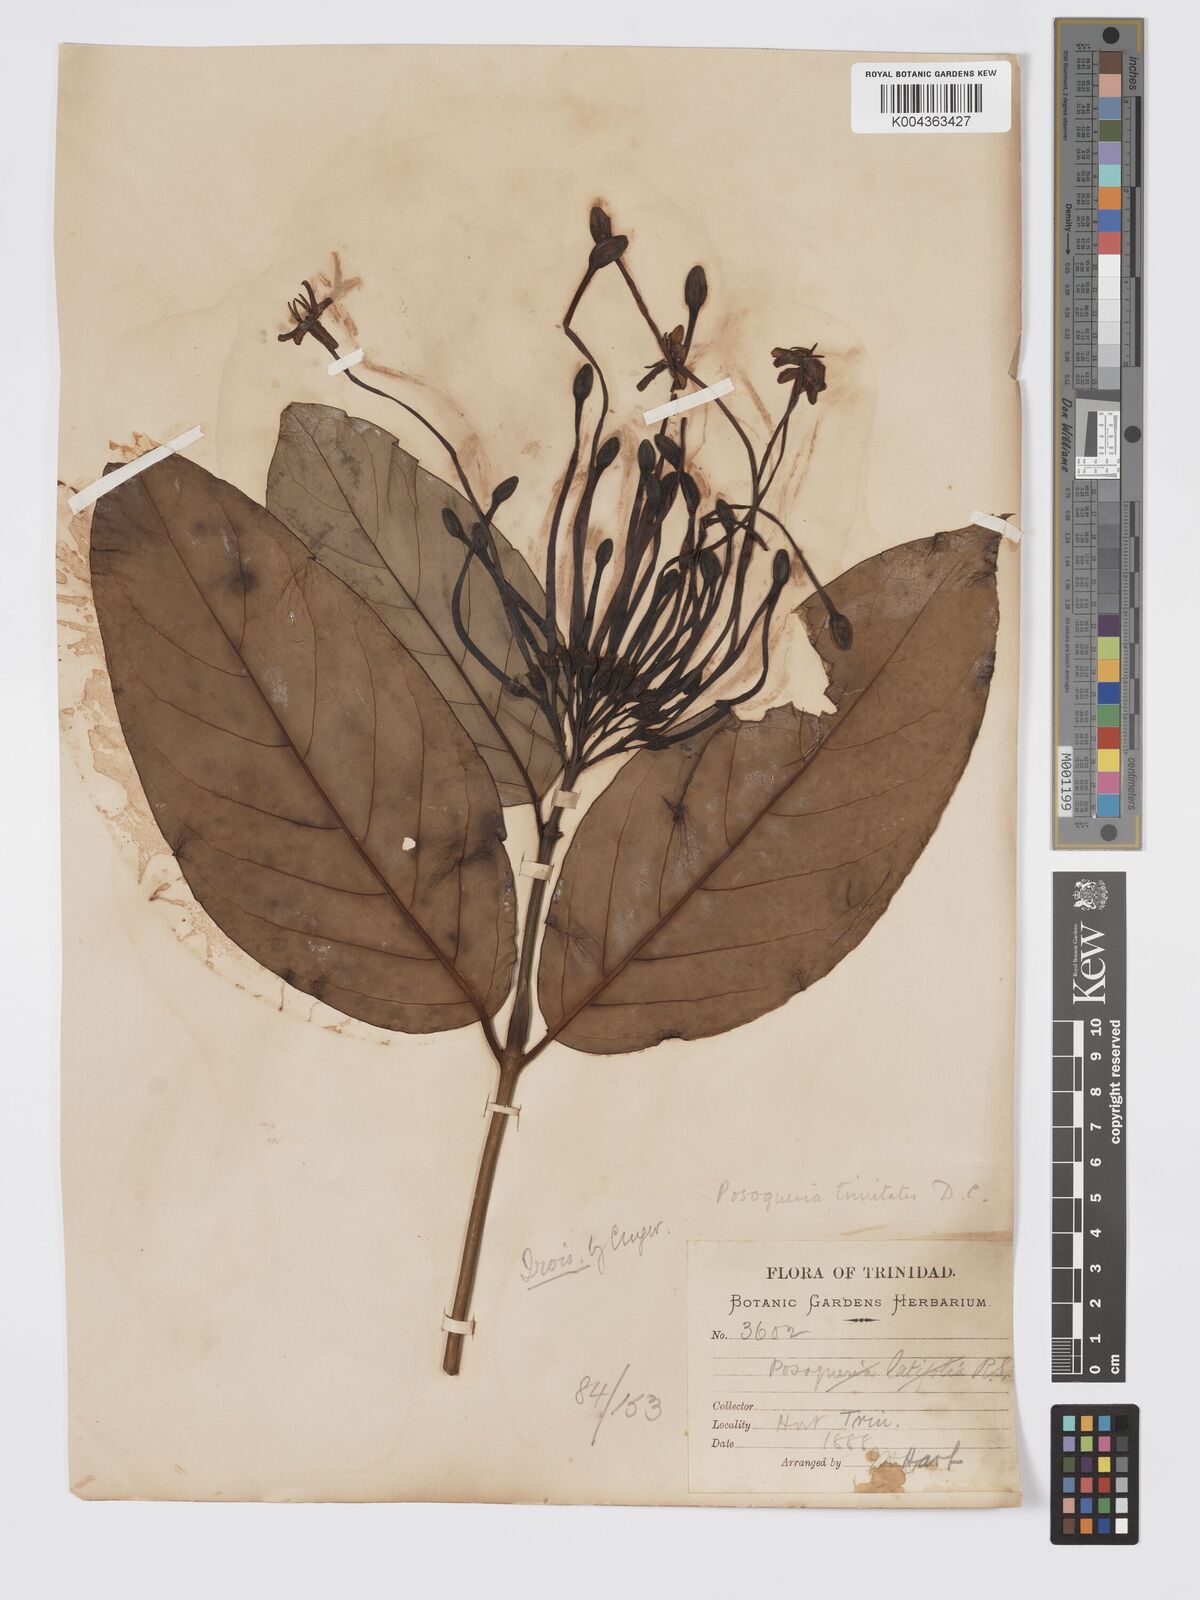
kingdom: Plantae
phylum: Tracheophyta
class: Magnoliopsida
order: Gentianales
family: Rubiaceae
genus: Posoqueria
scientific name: Posoqueria trinitatis
